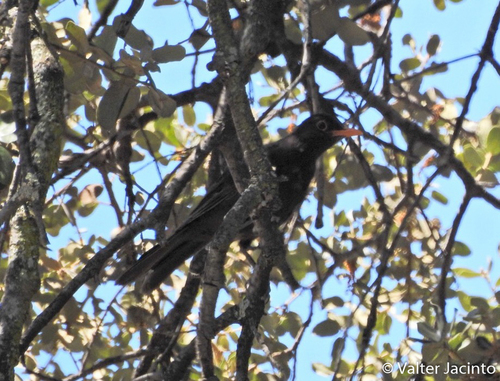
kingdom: Animalia
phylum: Chordata
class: Aves
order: Passeriformes
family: Turdidae
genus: Turdus
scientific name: Turdus merula
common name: Common blackbird
